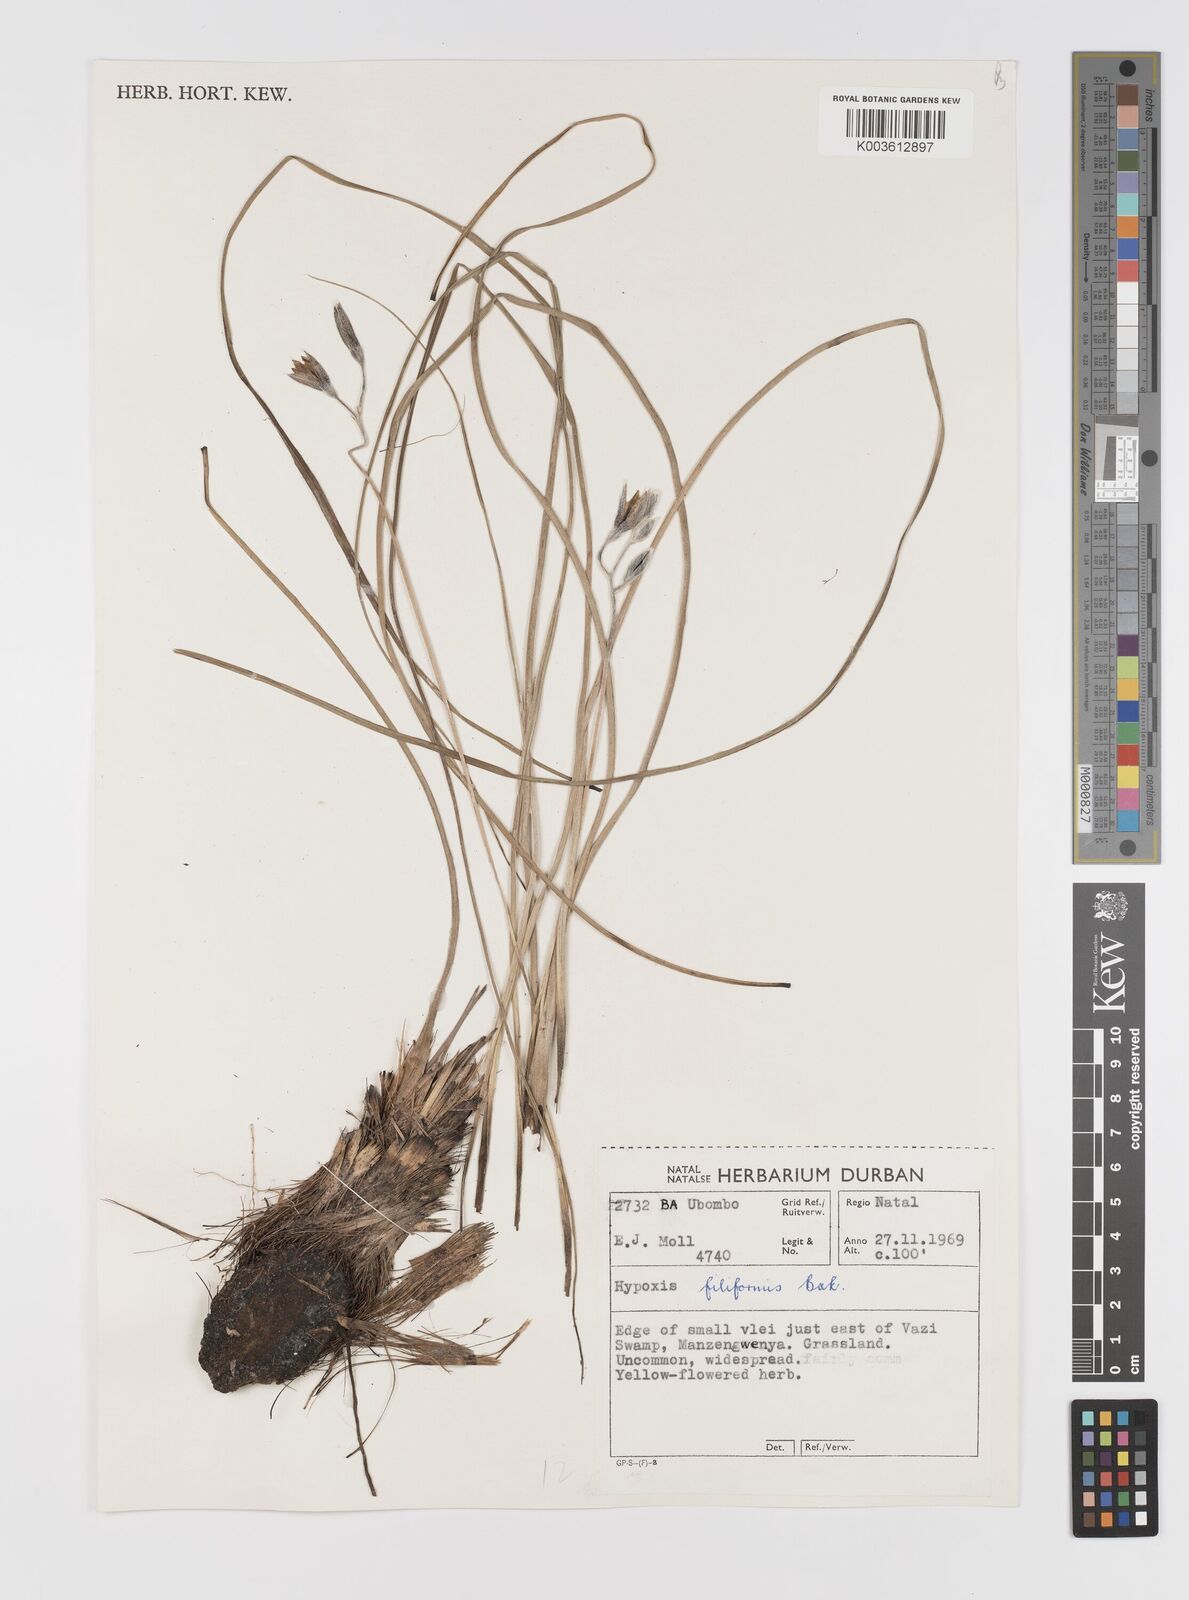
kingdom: Plantae
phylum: Tracheophyta
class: Liliopsida
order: Asparagales
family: Hypoxidaceae
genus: Hypoxis
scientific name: Hypoxis acuminata
